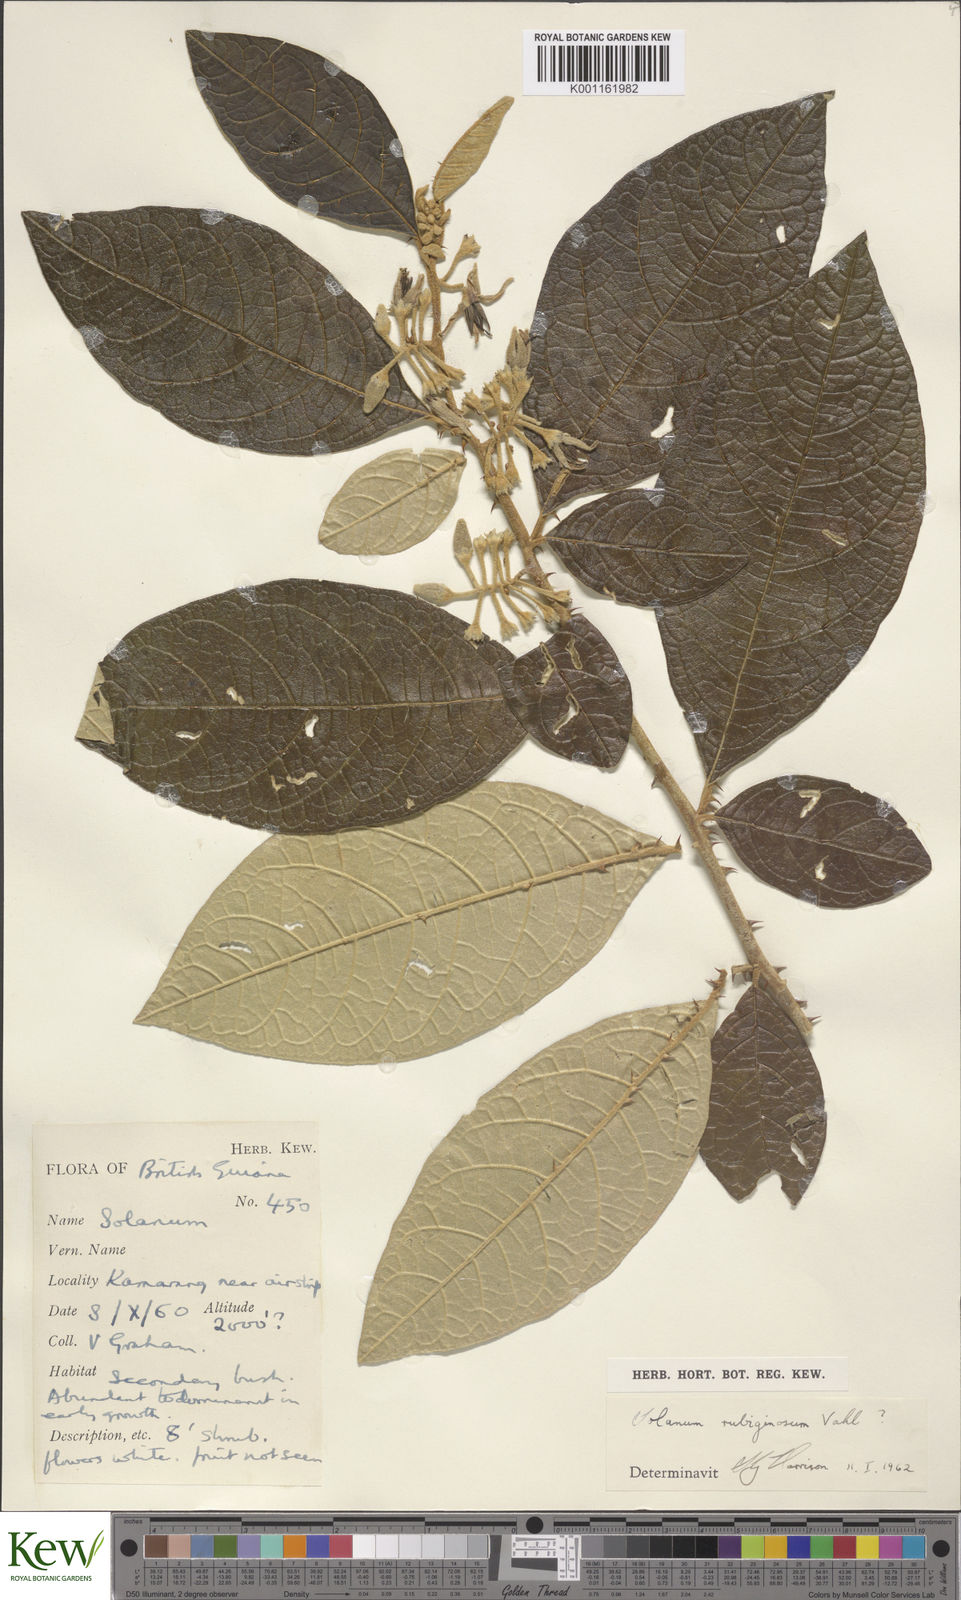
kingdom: Plantae
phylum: Tracheophyta
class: Magnoliopsida
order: Solanales
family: Solanaceae
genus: Solanum
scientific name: Solanum rubiginosum
